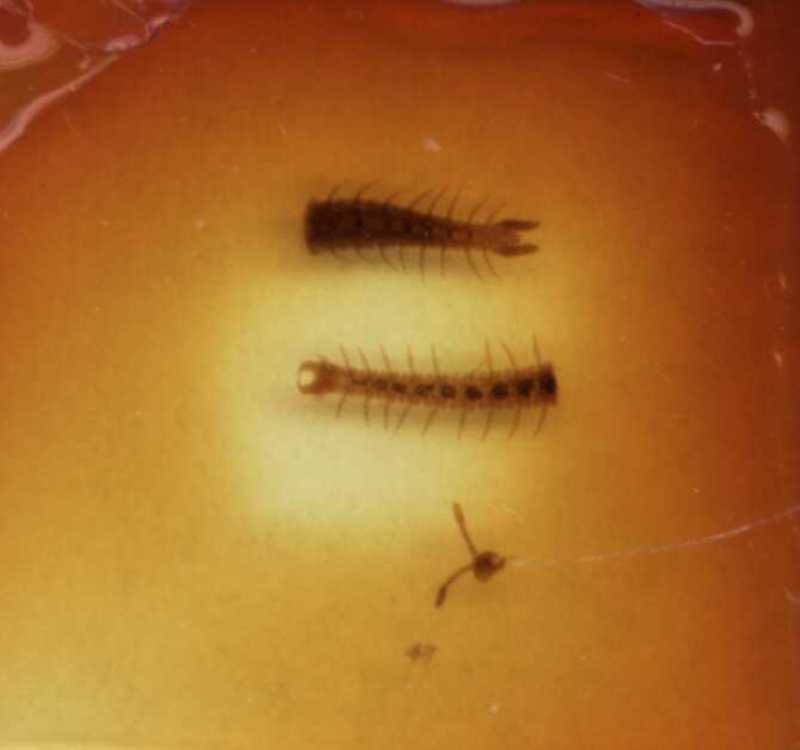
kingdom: Animalia
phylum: Arthropoda
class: Chilopoda
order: Geophilomorpha
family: Ballophilidae
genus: Ballophilus
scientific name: Ballophilus mauritianus
